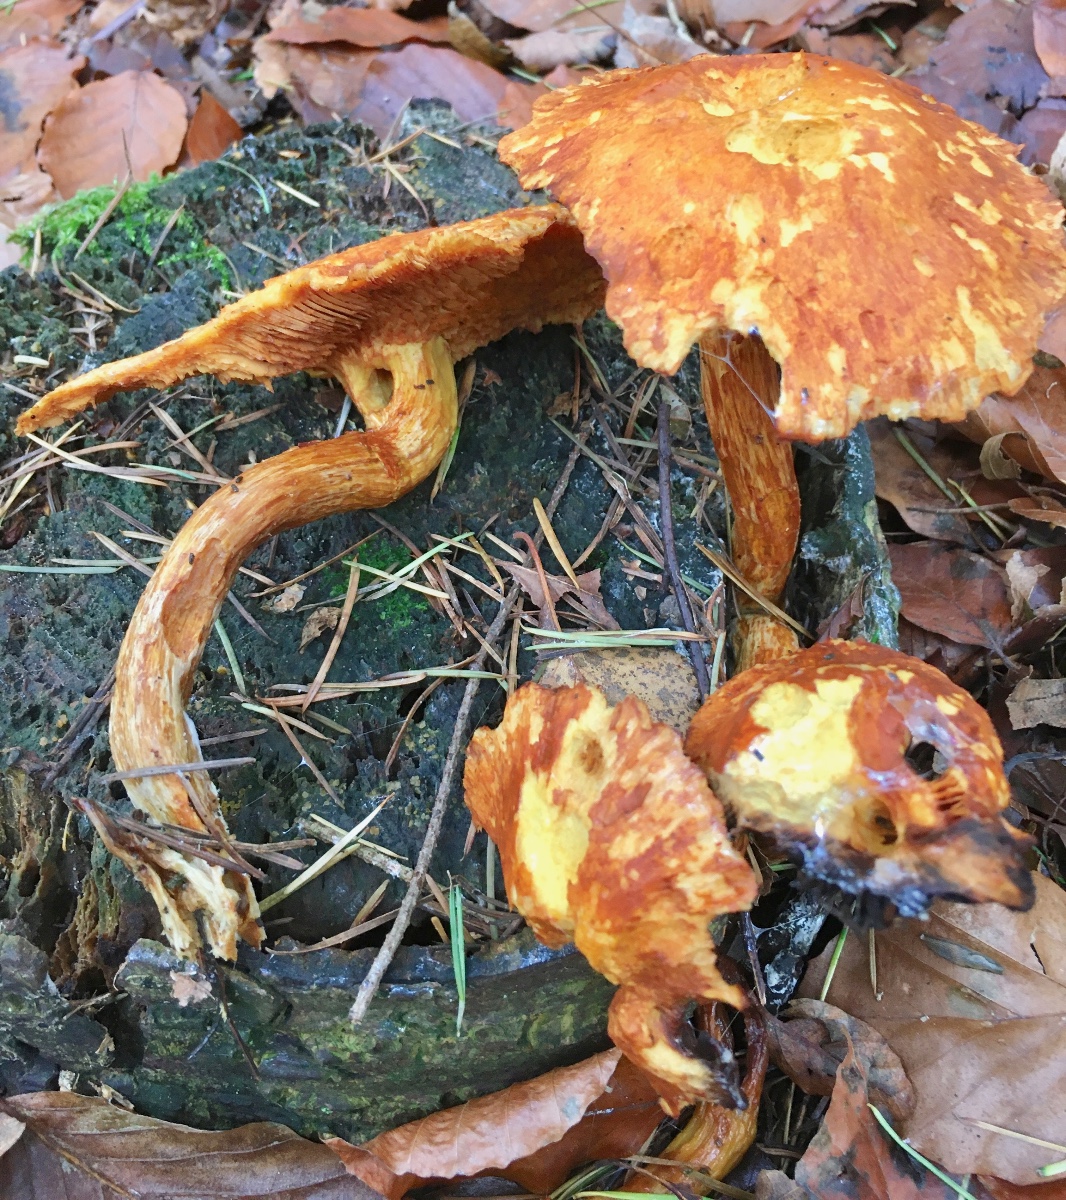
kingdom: Fungi
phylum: Basidiomycota
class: Agaricomycetes
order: Agaricales
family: Hymenogastraceae
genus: Gymnopilus
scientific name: Gymnopilus spectabilis
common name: fibret flammehat
